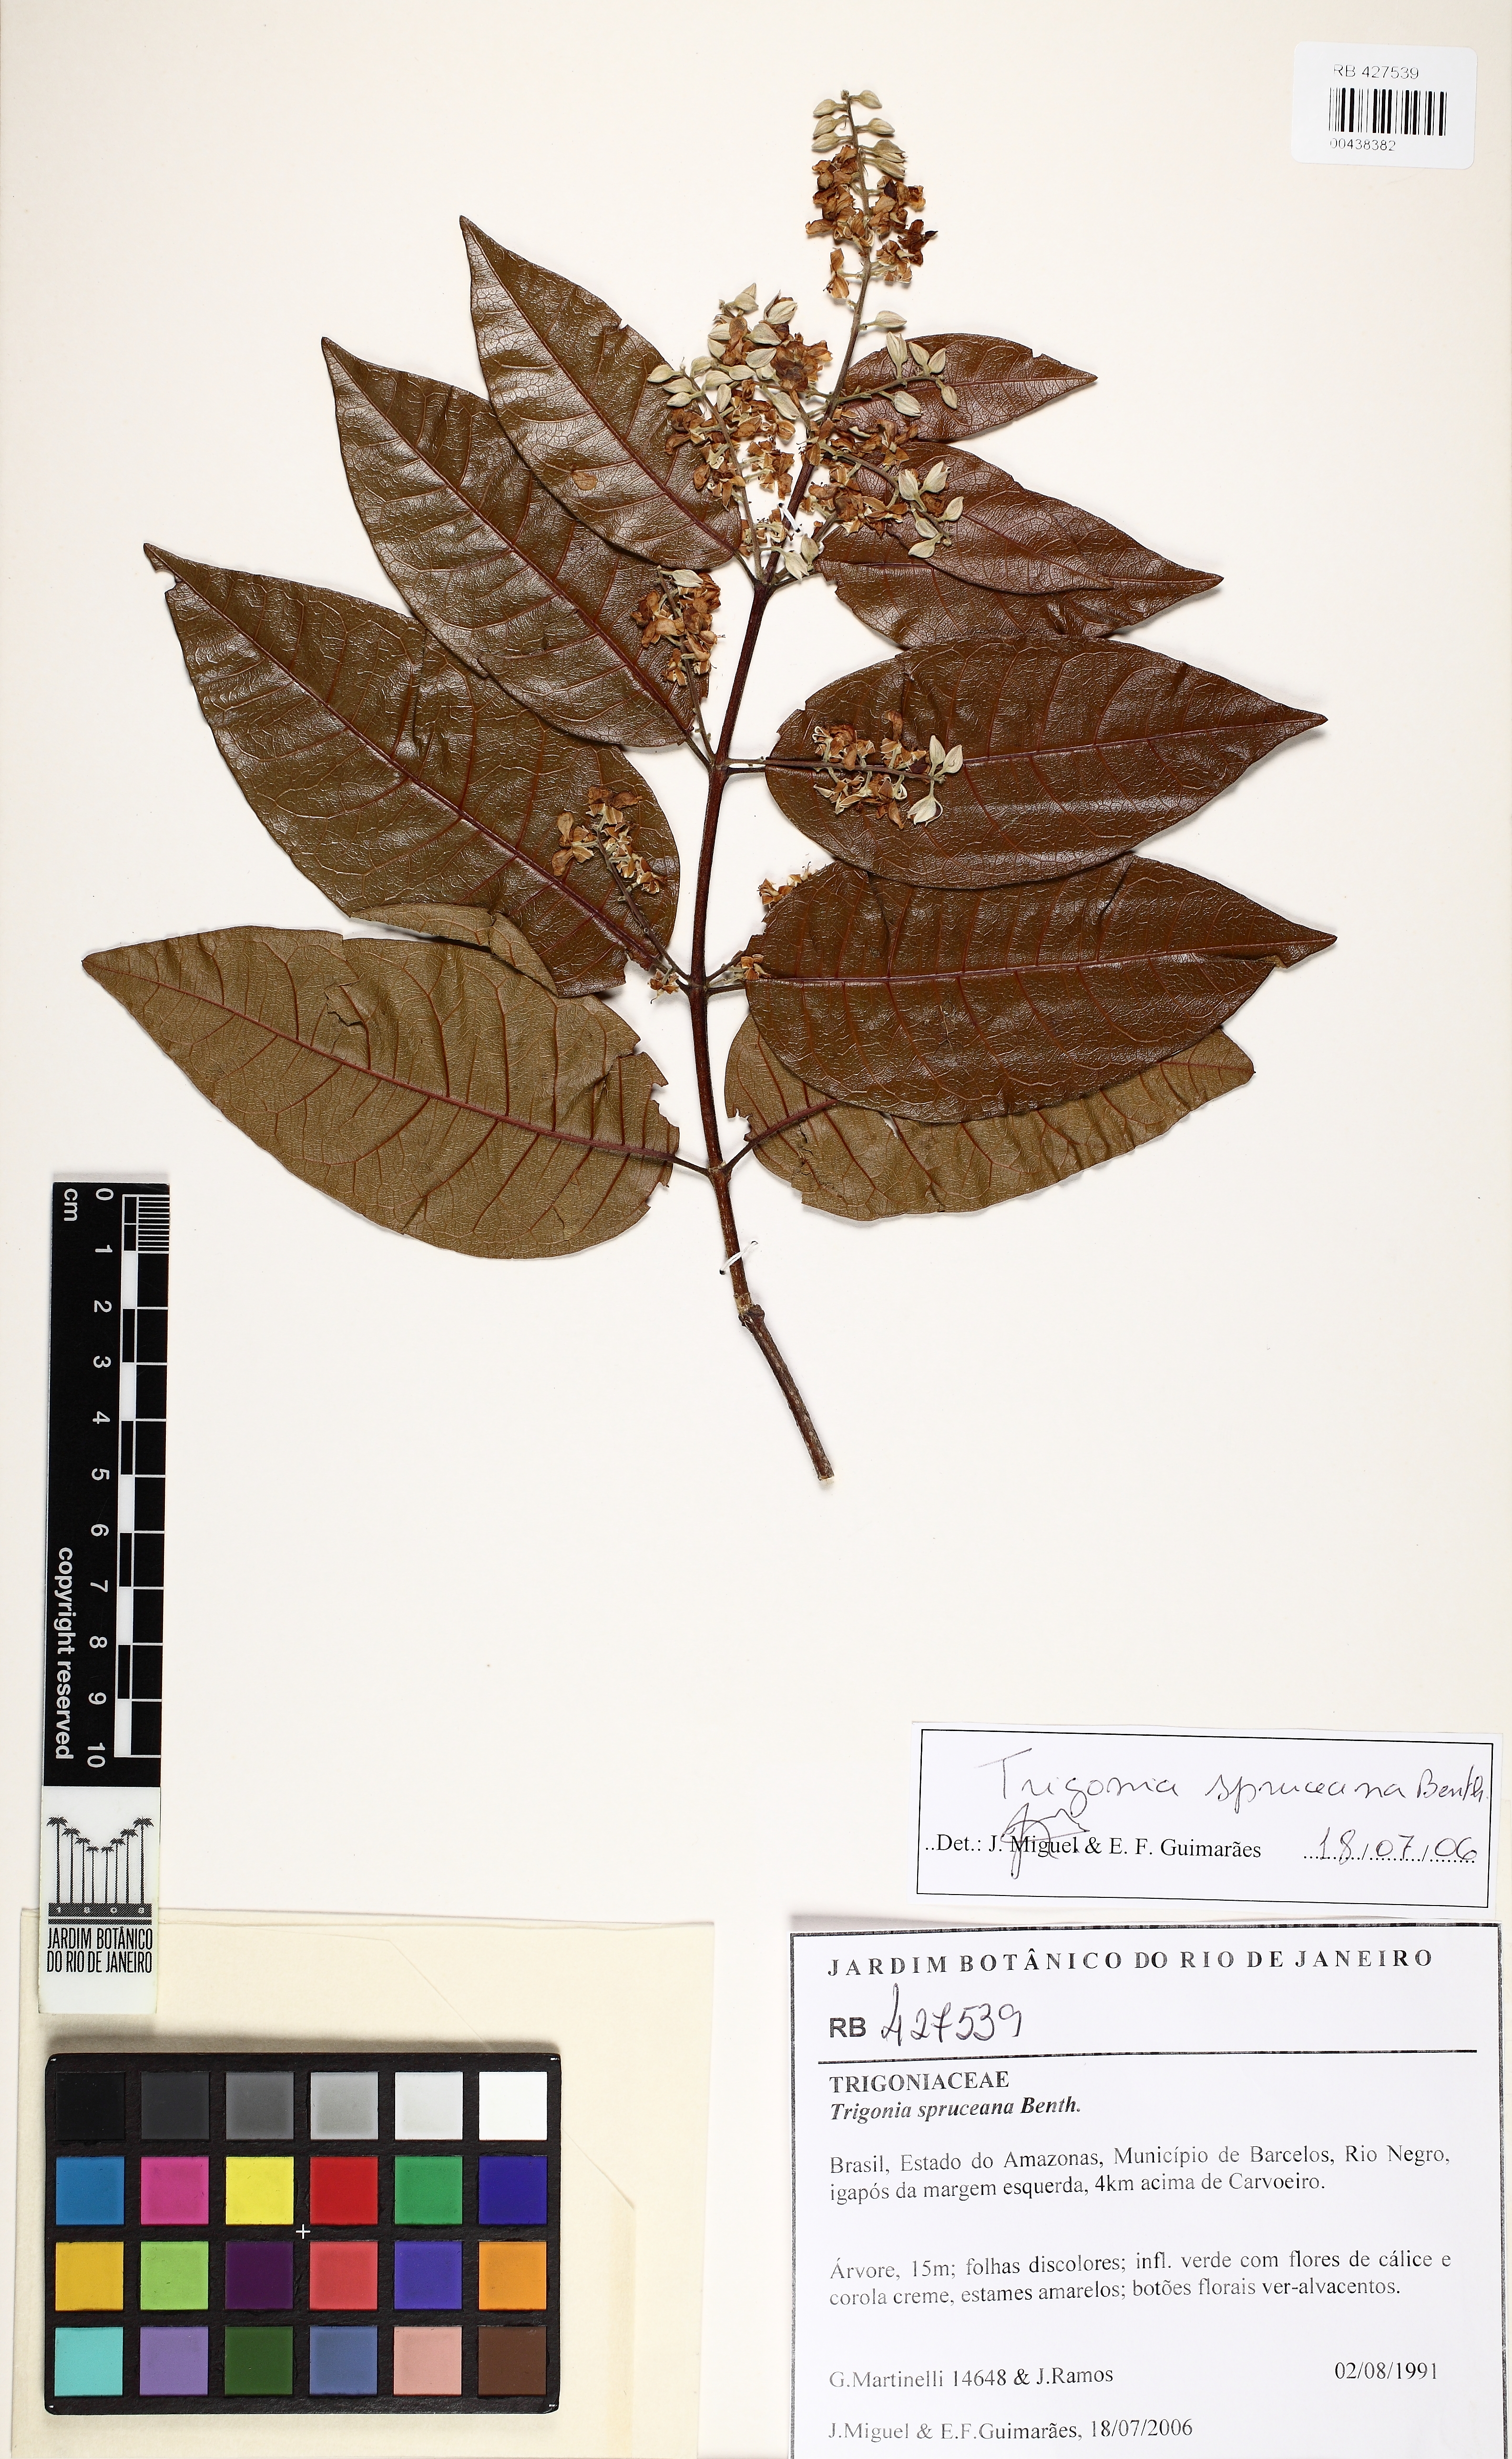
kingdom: Plantae
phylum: Tracheophyta
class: Magnoliopsida
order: Malpighiales
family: Trigoniaceae
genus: Trigonia
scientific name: Trigonia spruceana
